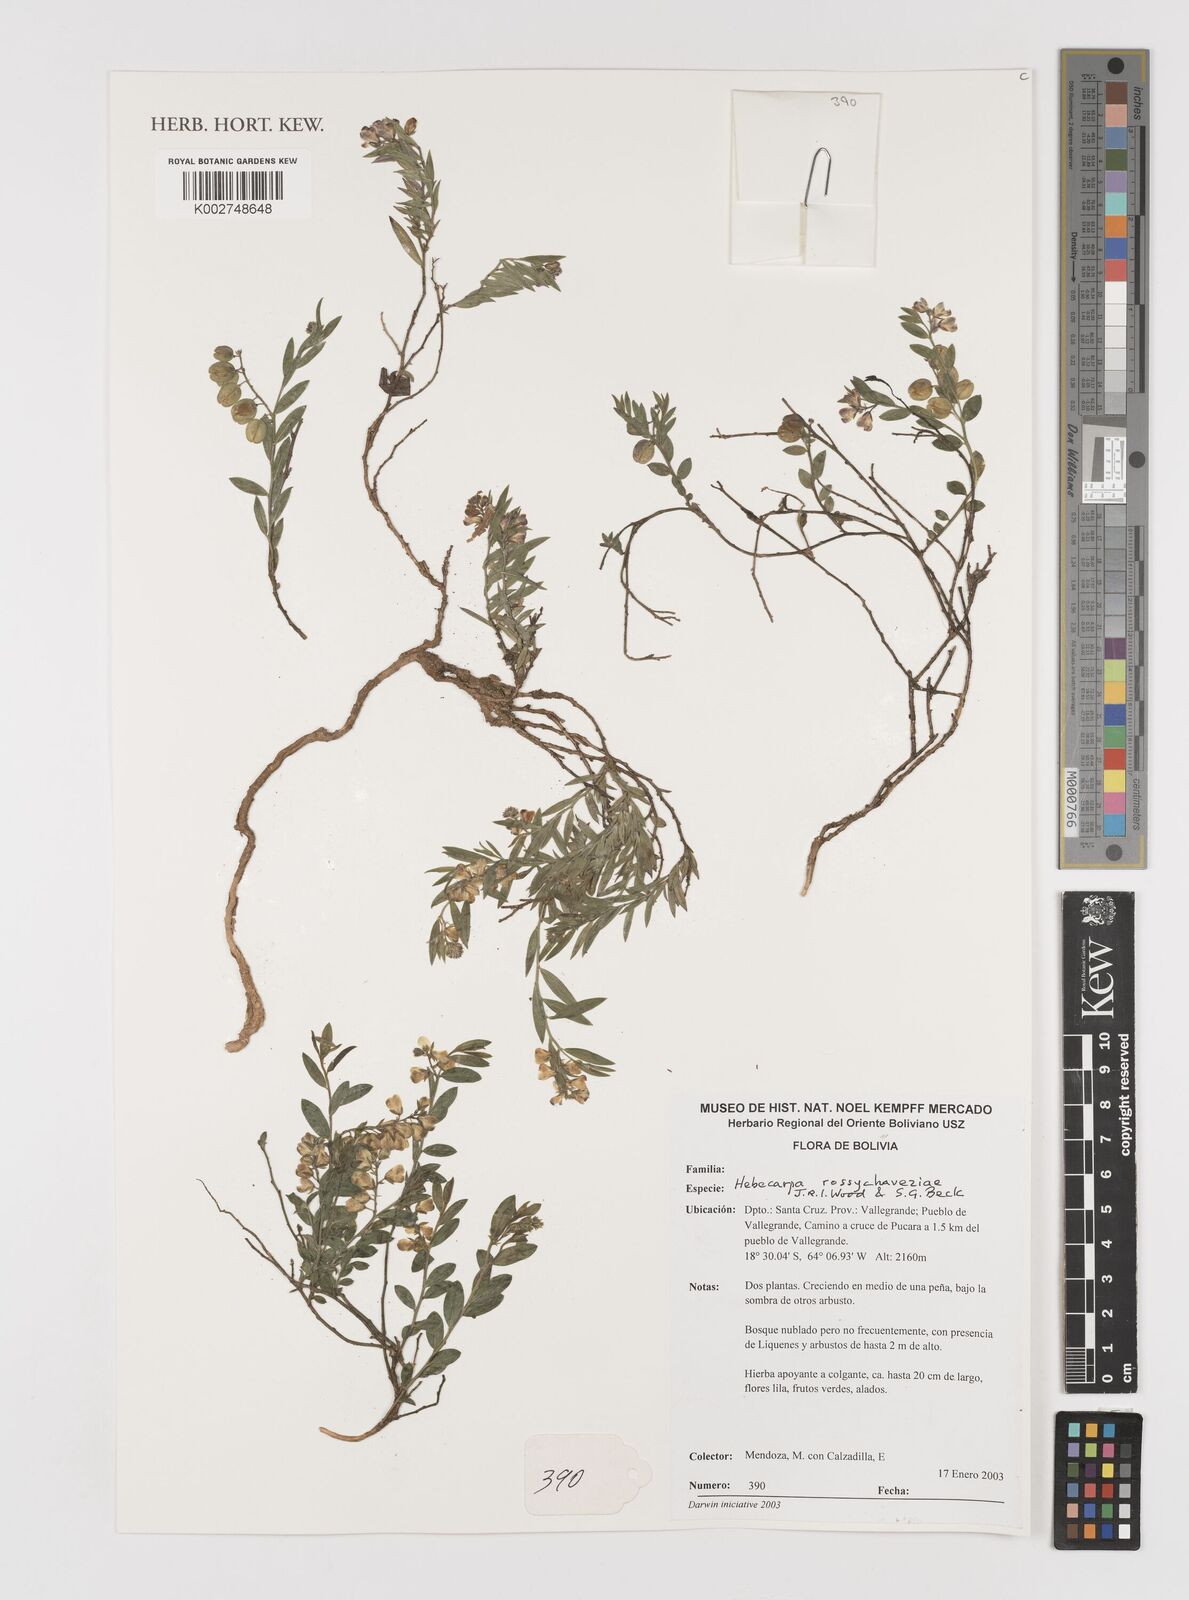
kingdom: Plantae
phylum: Tracheophyta
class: Magnoliopsida
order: Fabales
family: Polygalaceae
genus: Hebecarpa
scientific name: Hebecarpa rossychaveziae
